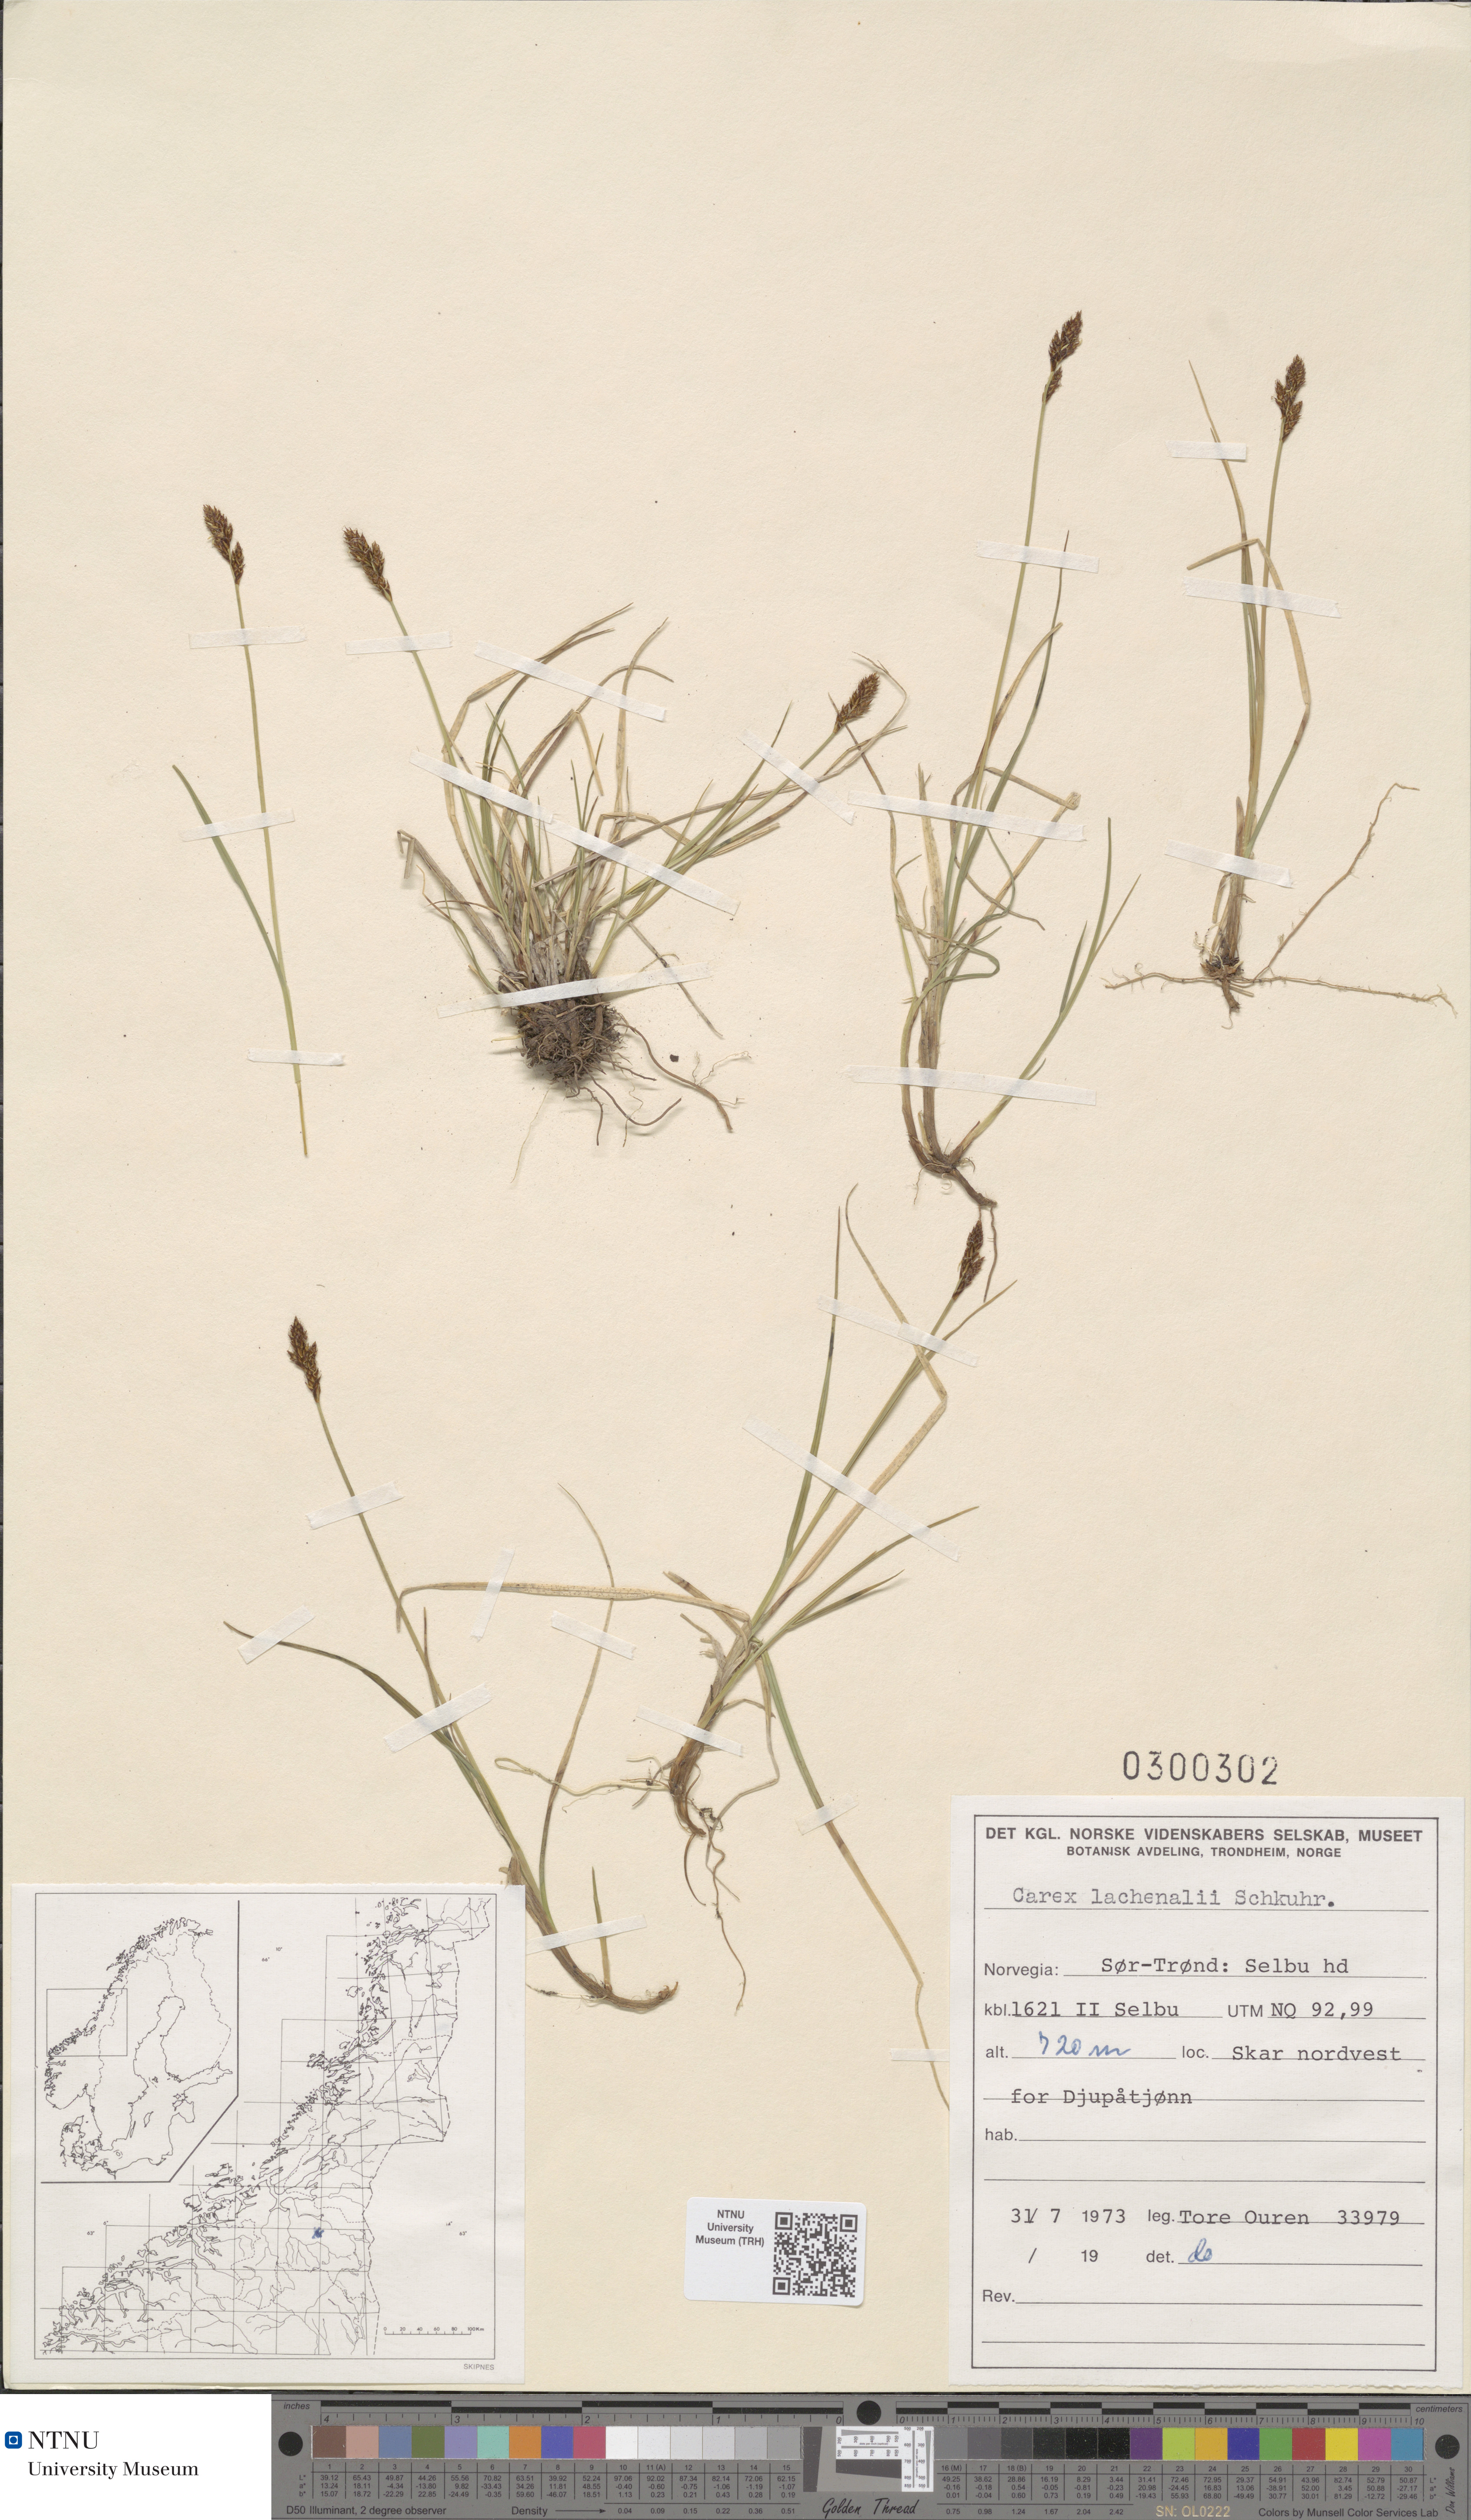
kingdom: Plantae
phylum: Tracheophyta
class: Liliopsida
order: Poales
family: Cyperaceae
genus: Carex
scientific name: Carex lachenalii
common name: Hare's-foot sedge
